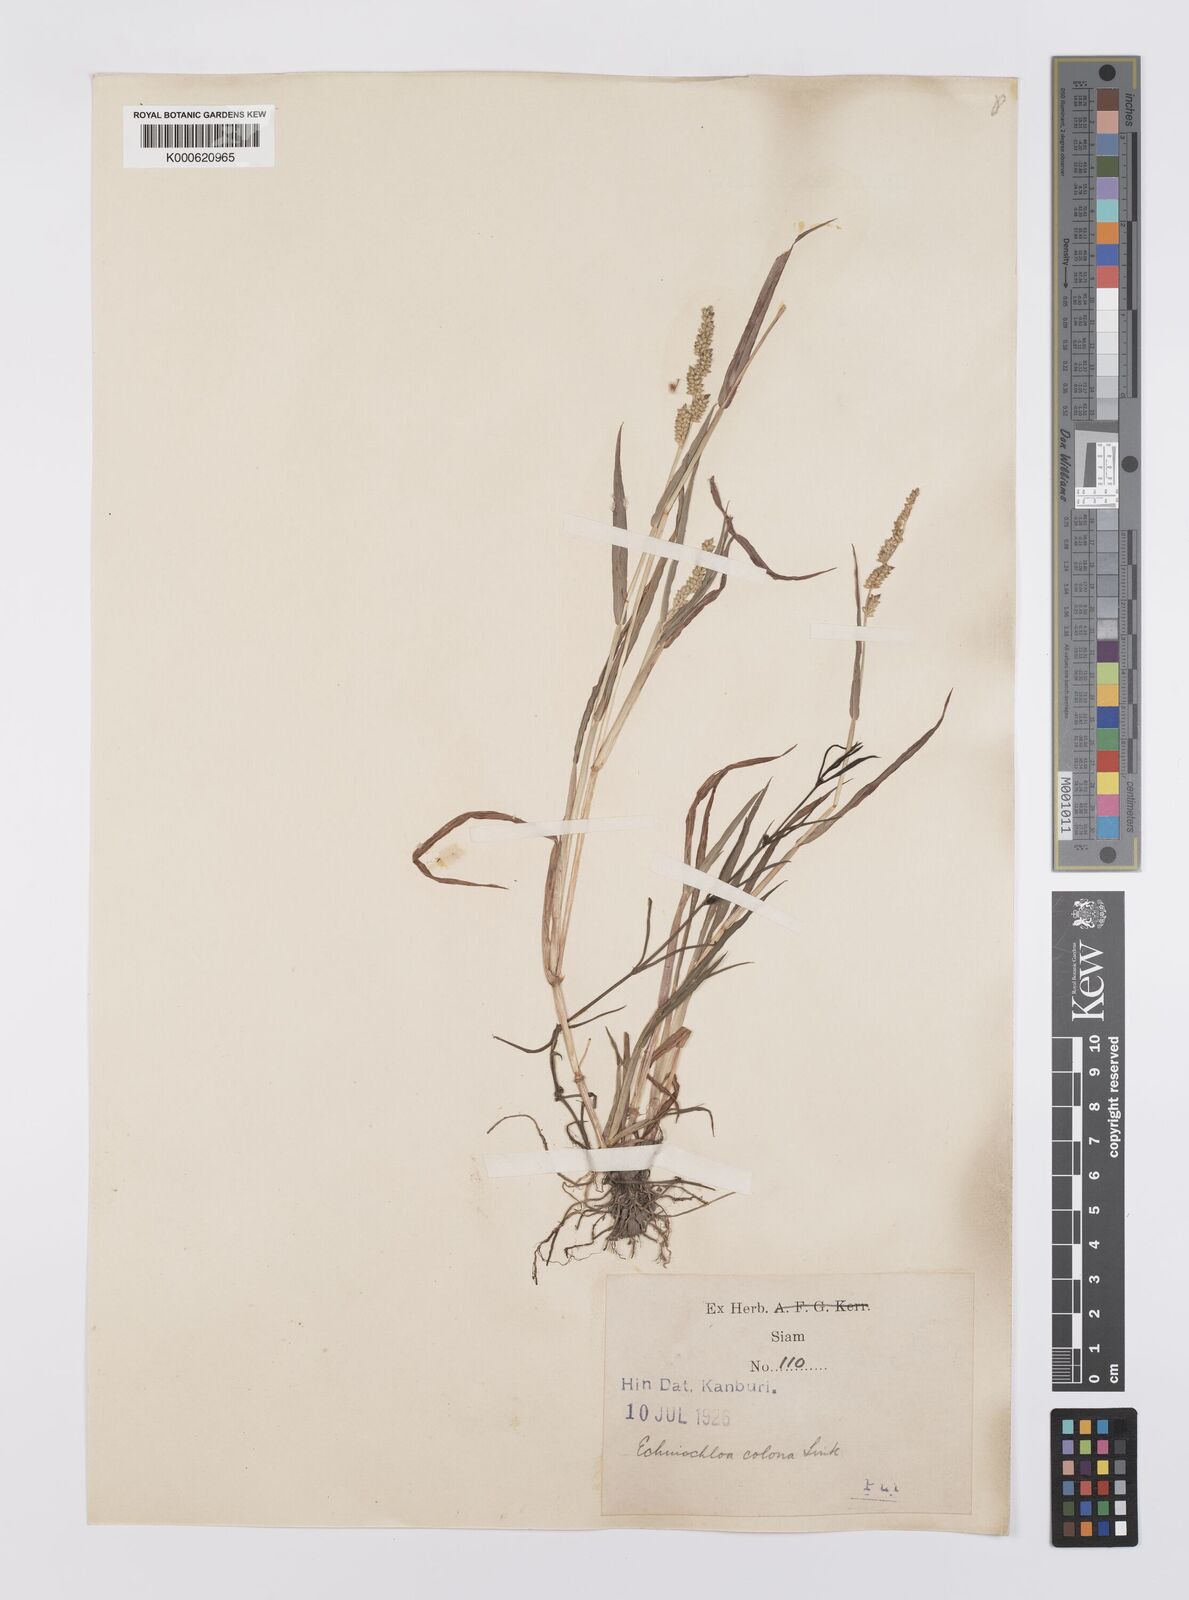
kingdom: Plantae
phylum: Tracheophyta
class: Liliopsida
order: Poales
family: Poaceae
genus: Echinochloa
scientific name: Echinochloa colonum
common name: Jungle rice
